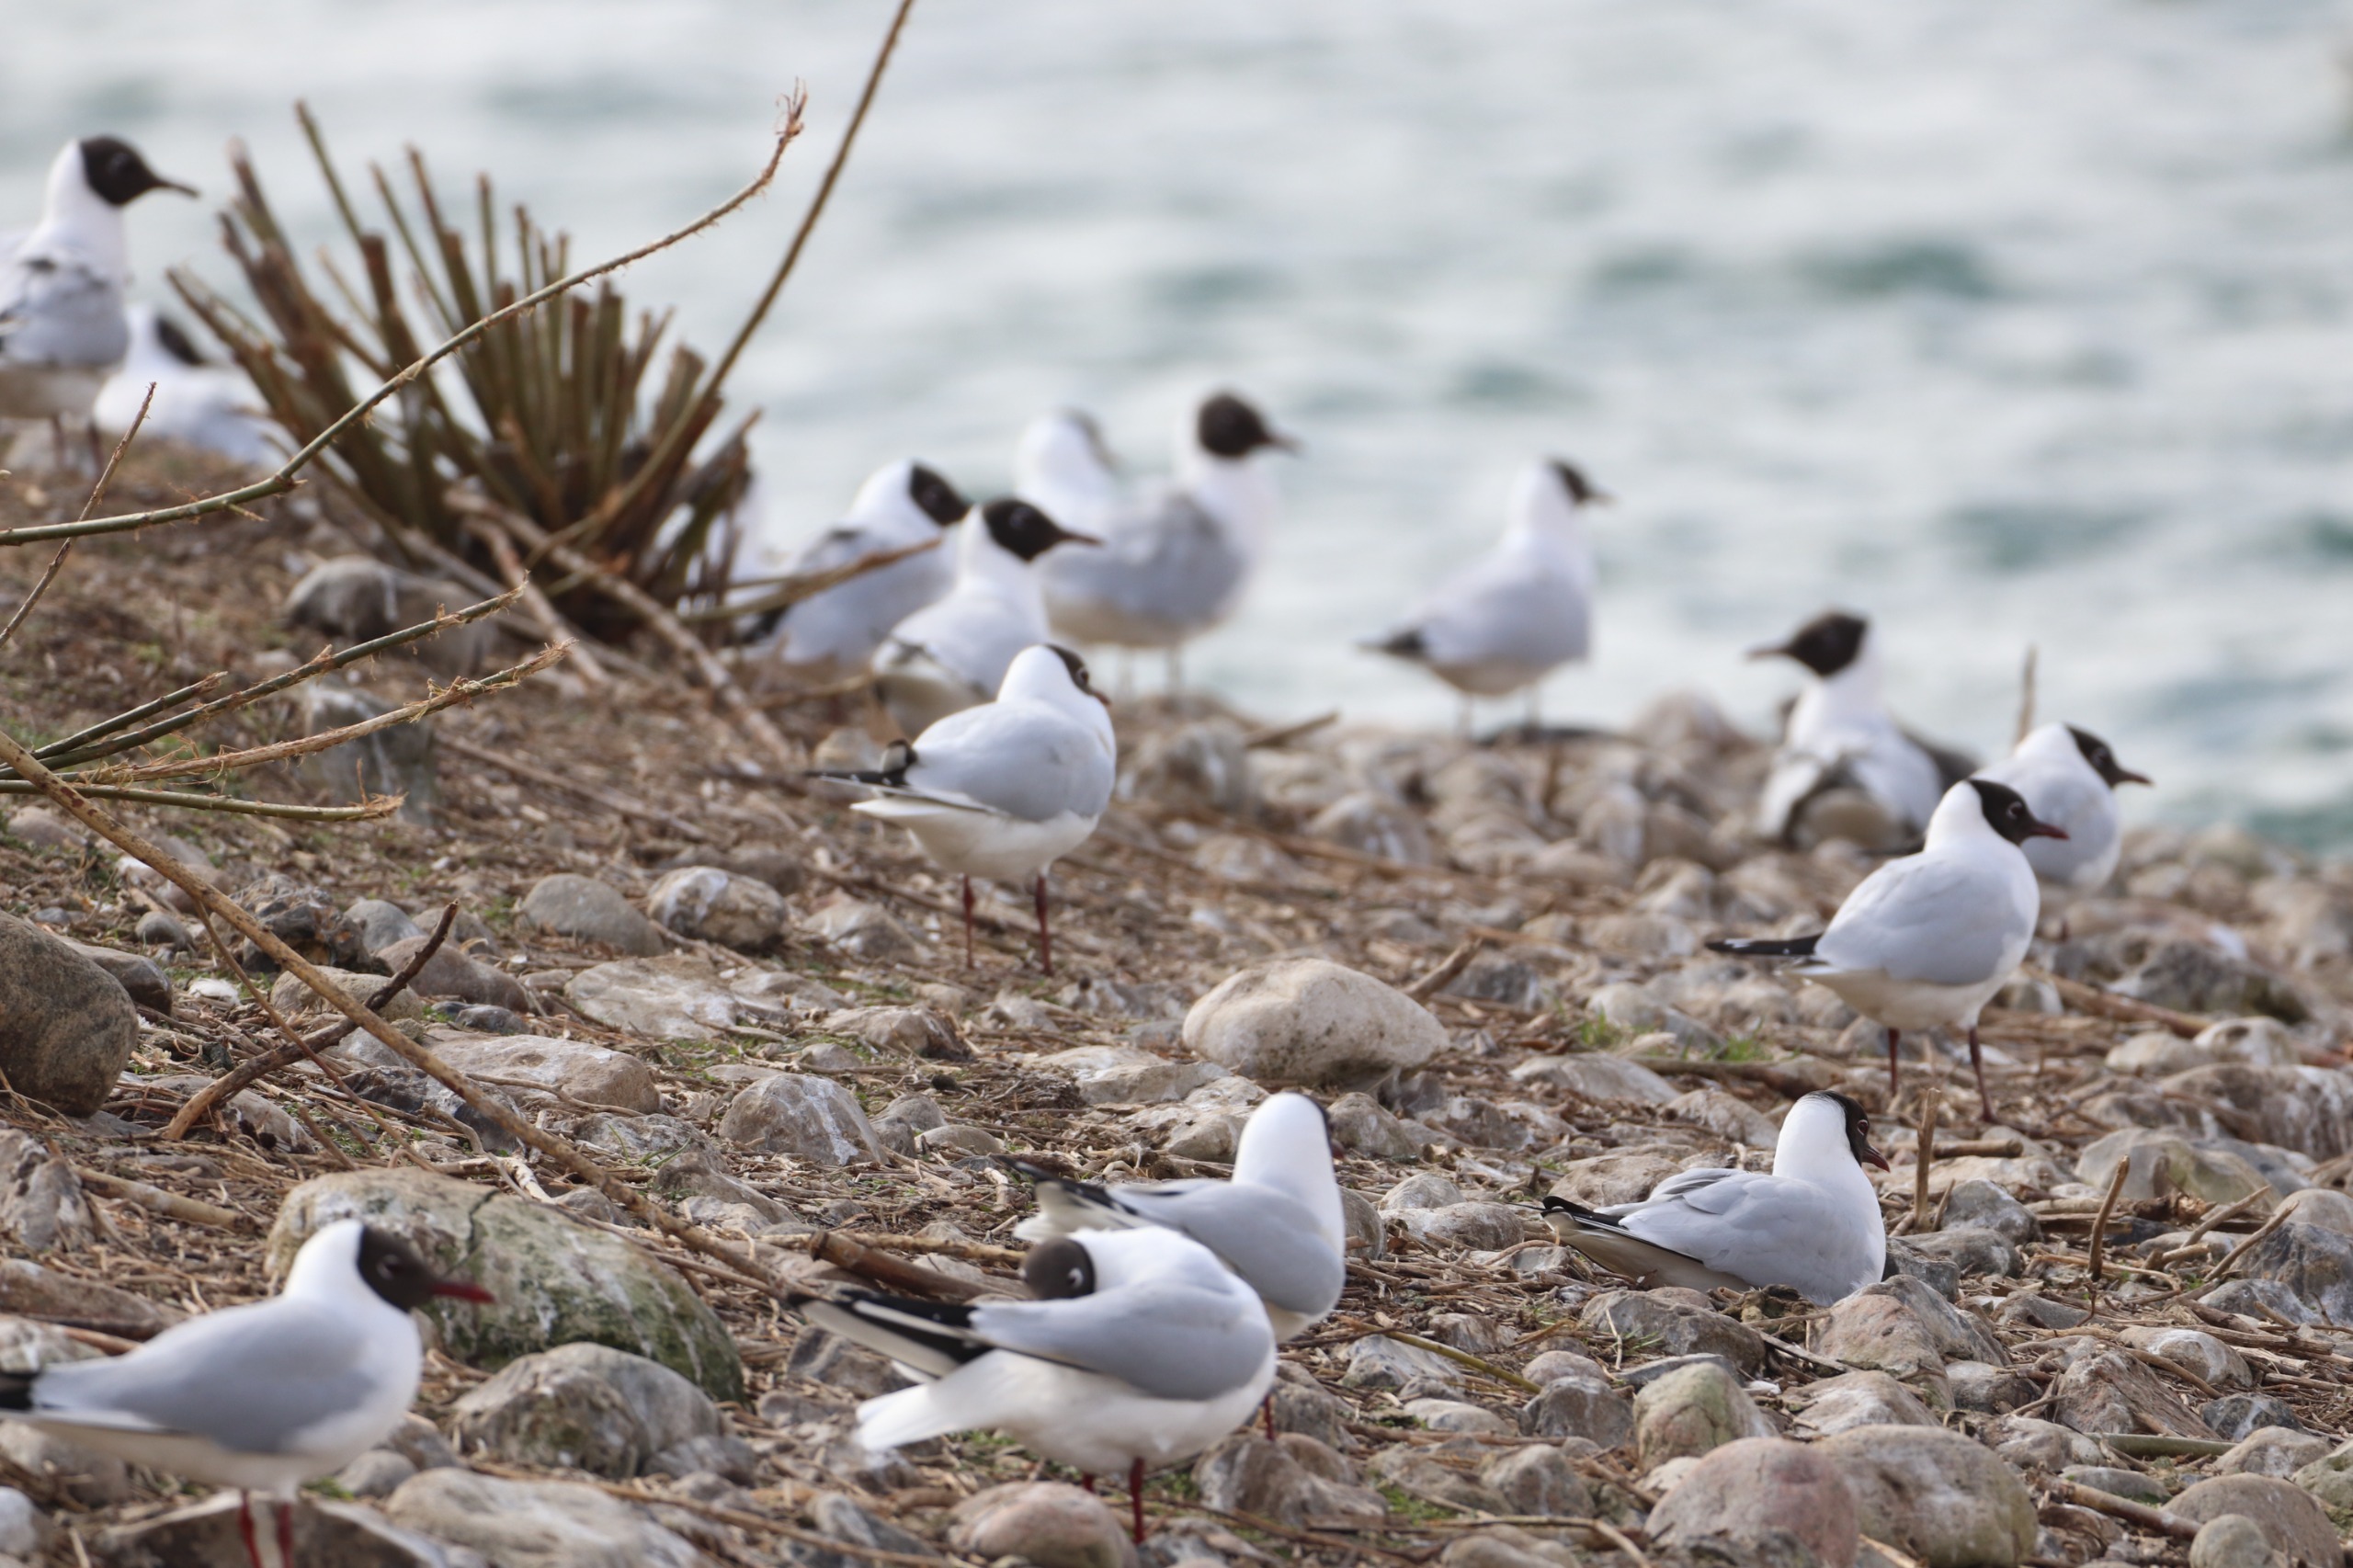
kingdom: Animalia
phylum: Chordata
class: Aves
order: Charadriiformes
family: Laridae
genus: Chroicocephalus
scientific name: Chroicocephalus ridibundus
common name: Hættemåge
